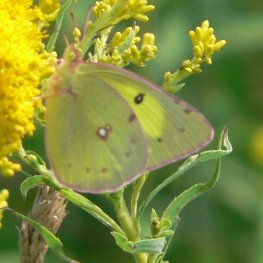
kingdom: Animalia
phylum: Arthropoda
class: Insecta
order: Lepidoptera
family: Pieridae
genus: Colias
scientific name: Colias philodice
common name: Clouded Sulphur
